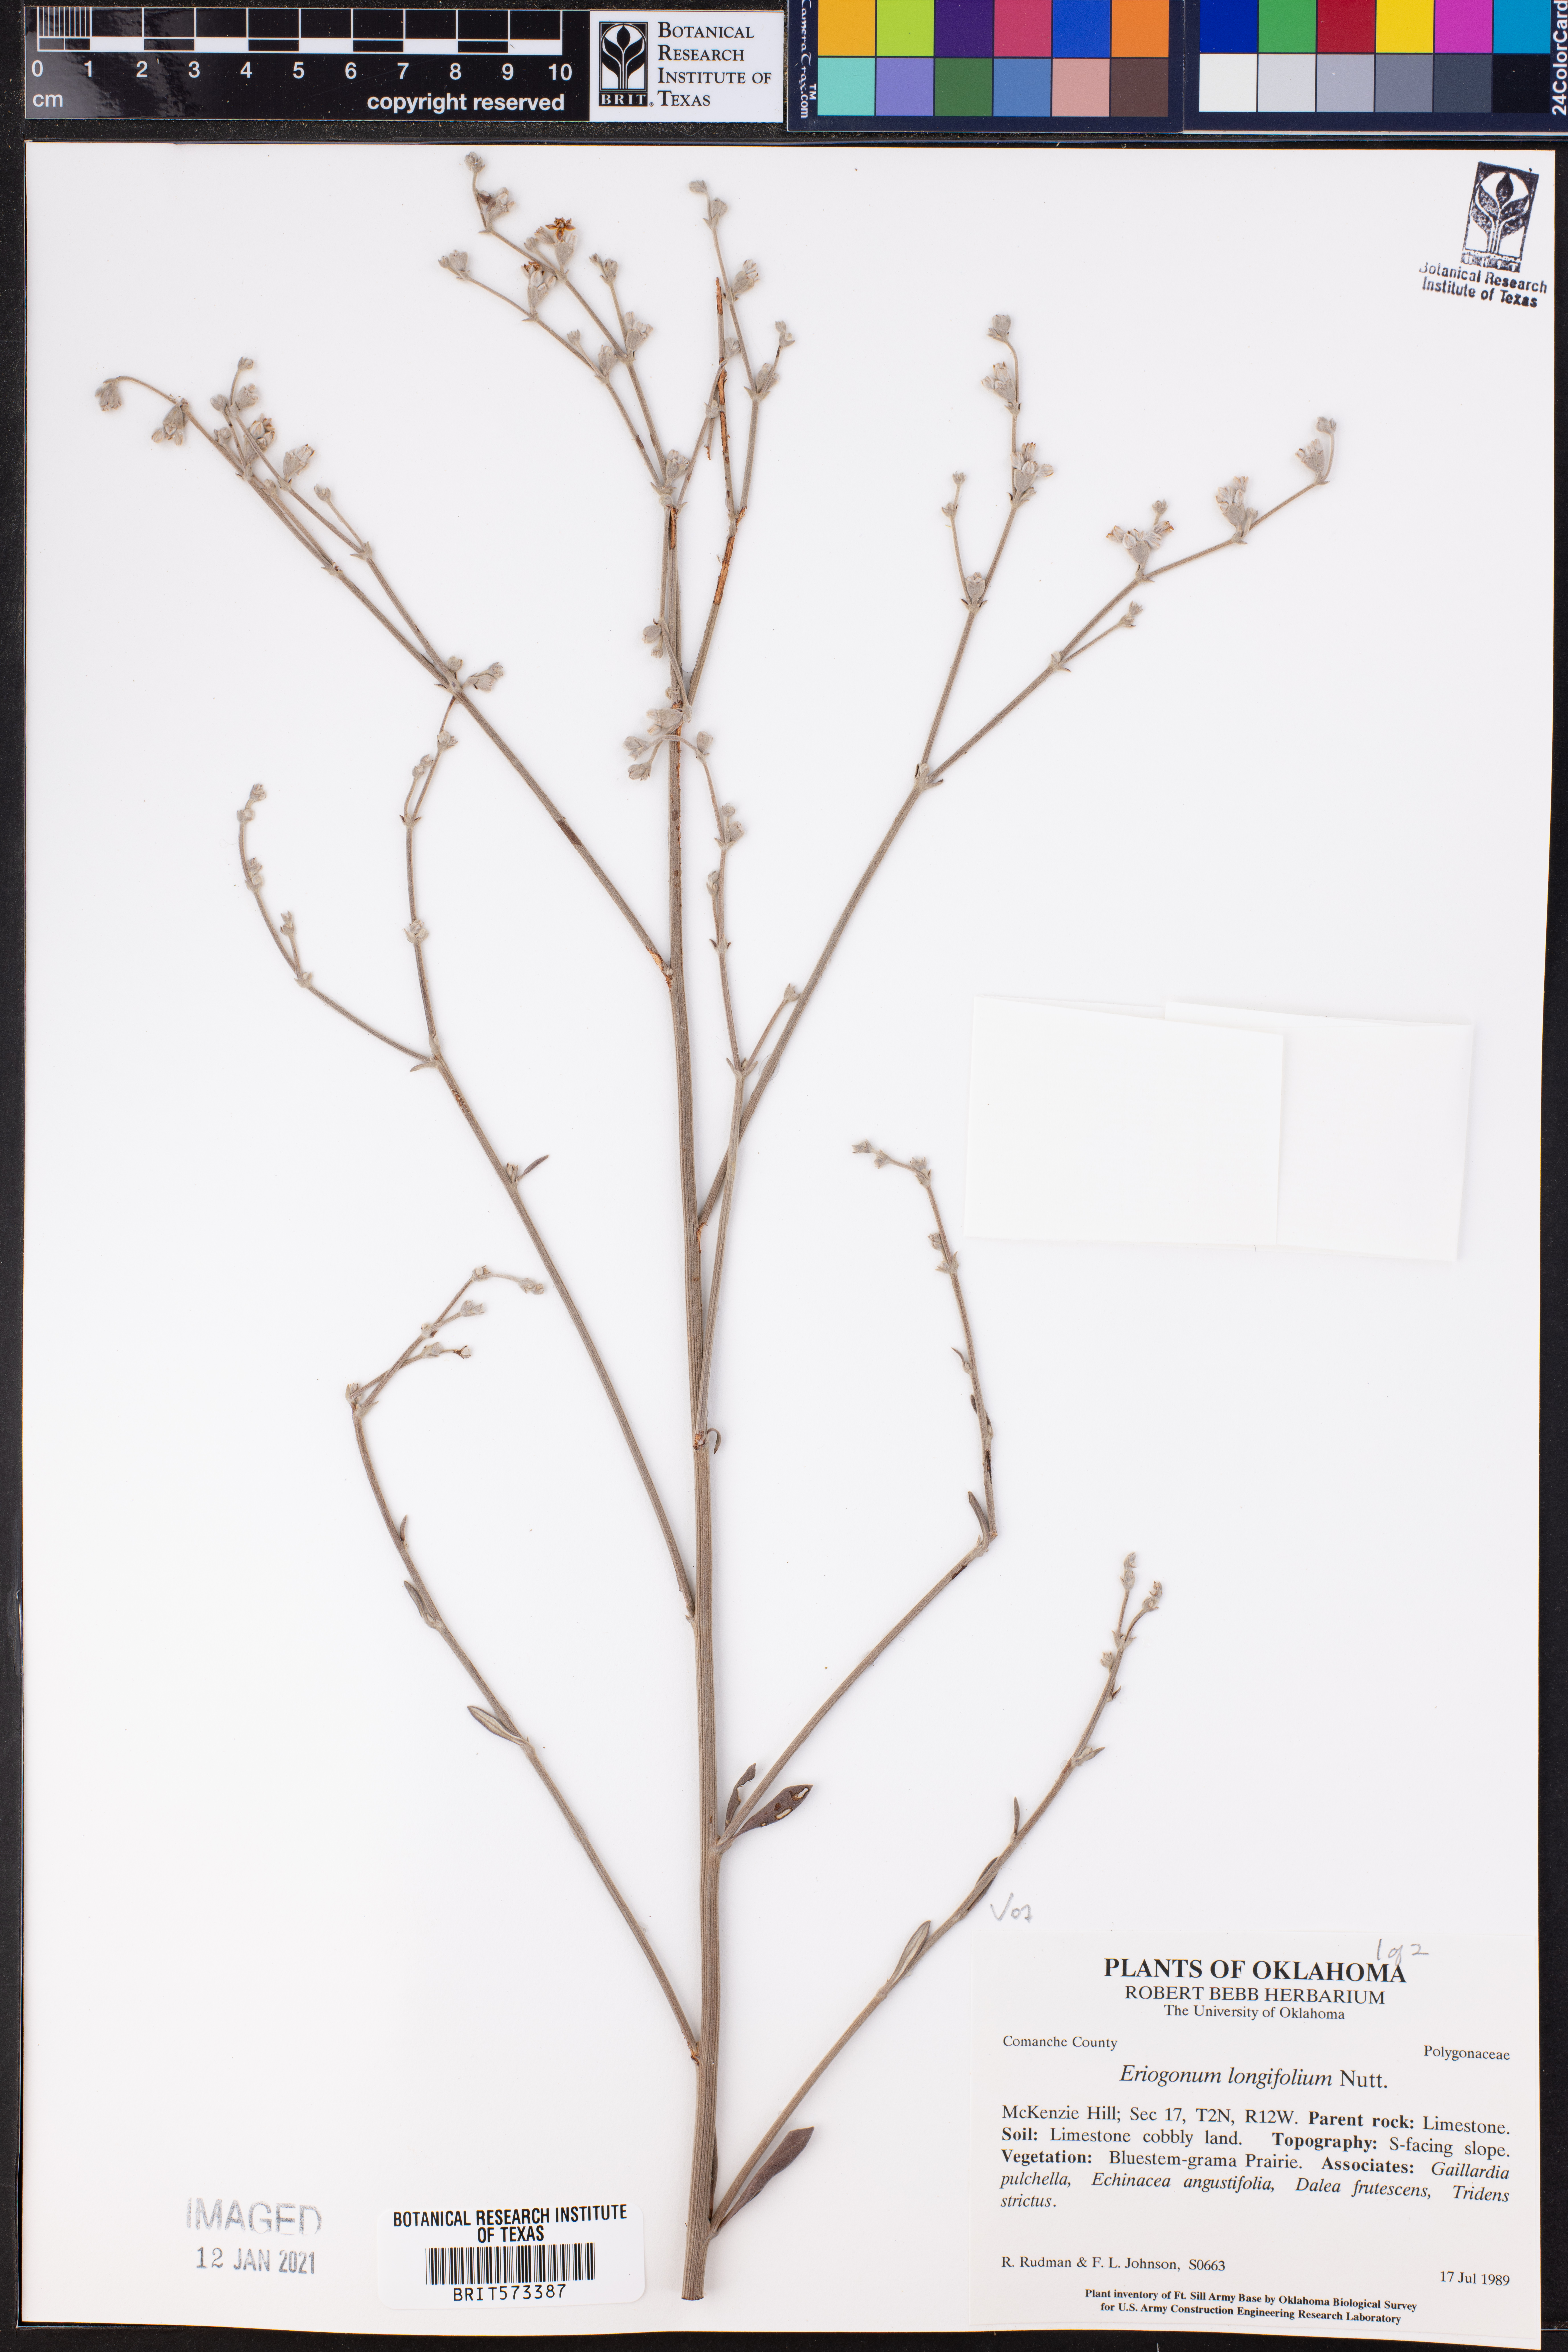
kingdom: Plantae
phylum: Tracheophyta
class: Magnoliopsida
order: Caryophyllales
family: Polygonaceae
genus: Eriogonum
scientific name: Eriogonum longifolium
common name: Longleaf wild buckwheat
